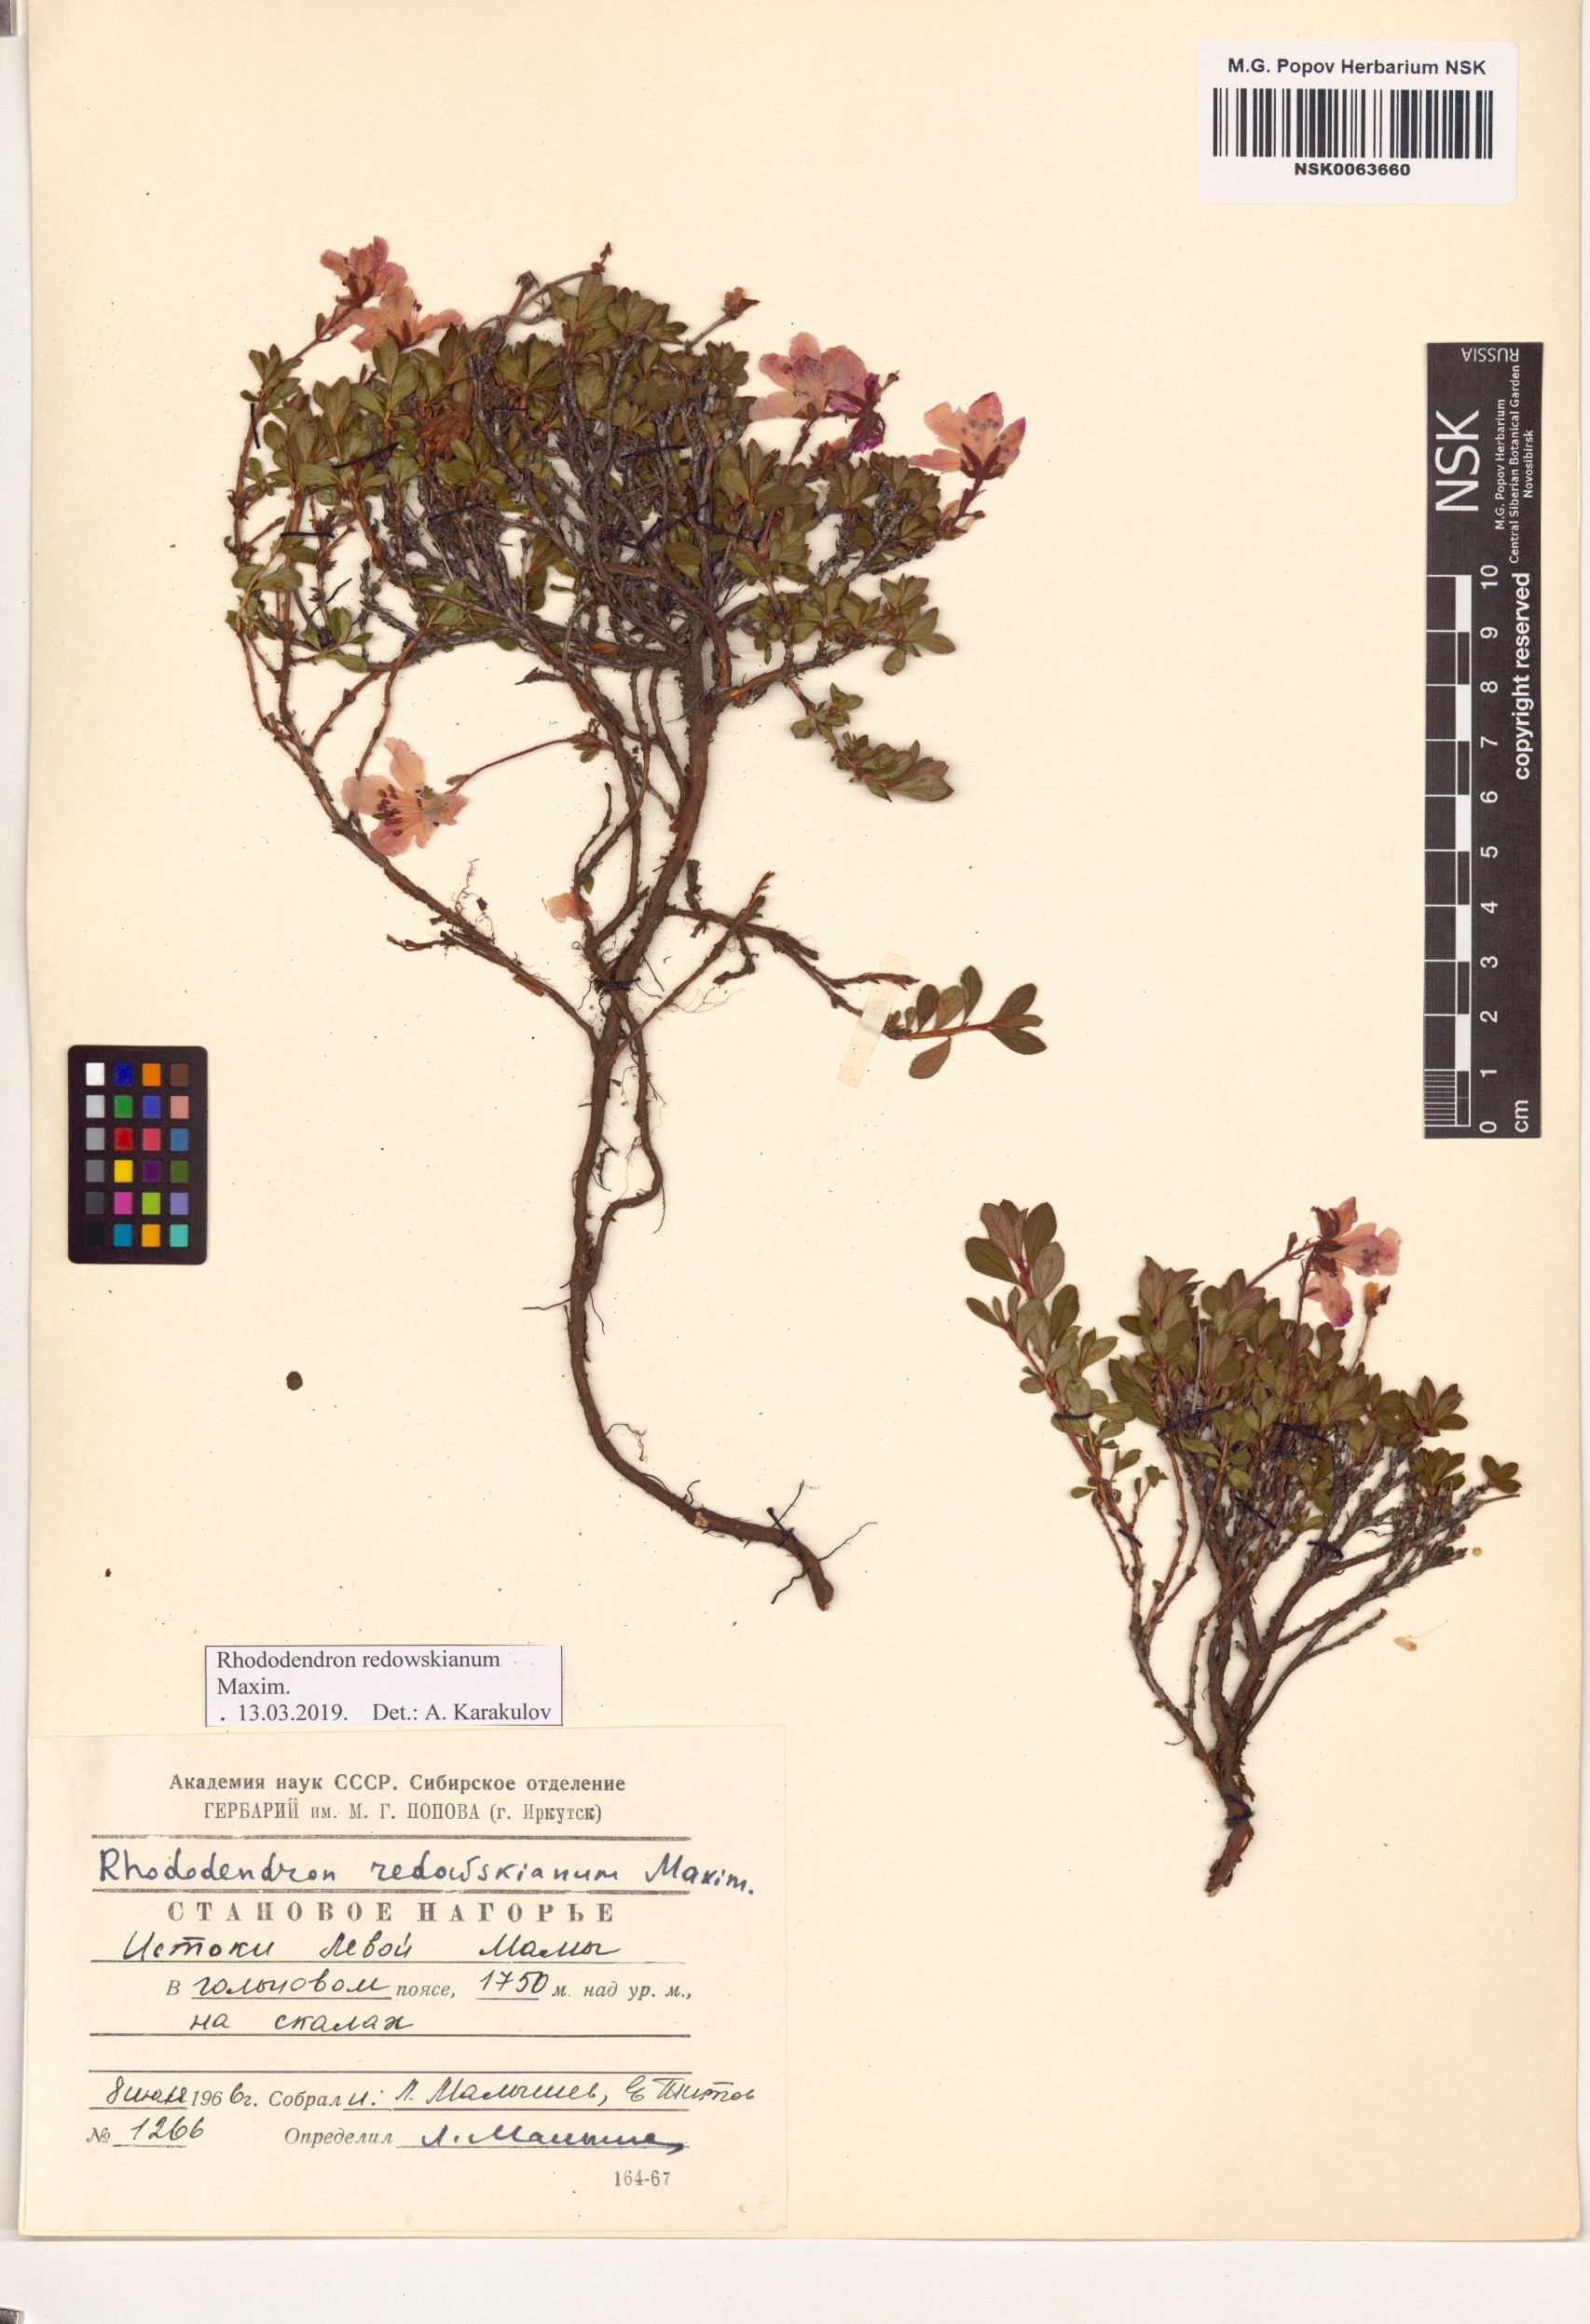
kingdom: Plantae
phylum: Tracheophyta
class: Magnoliopsida
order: Ericales
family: Ericaceae
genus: Rhododendron
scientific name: Rhododendron redowskianum
